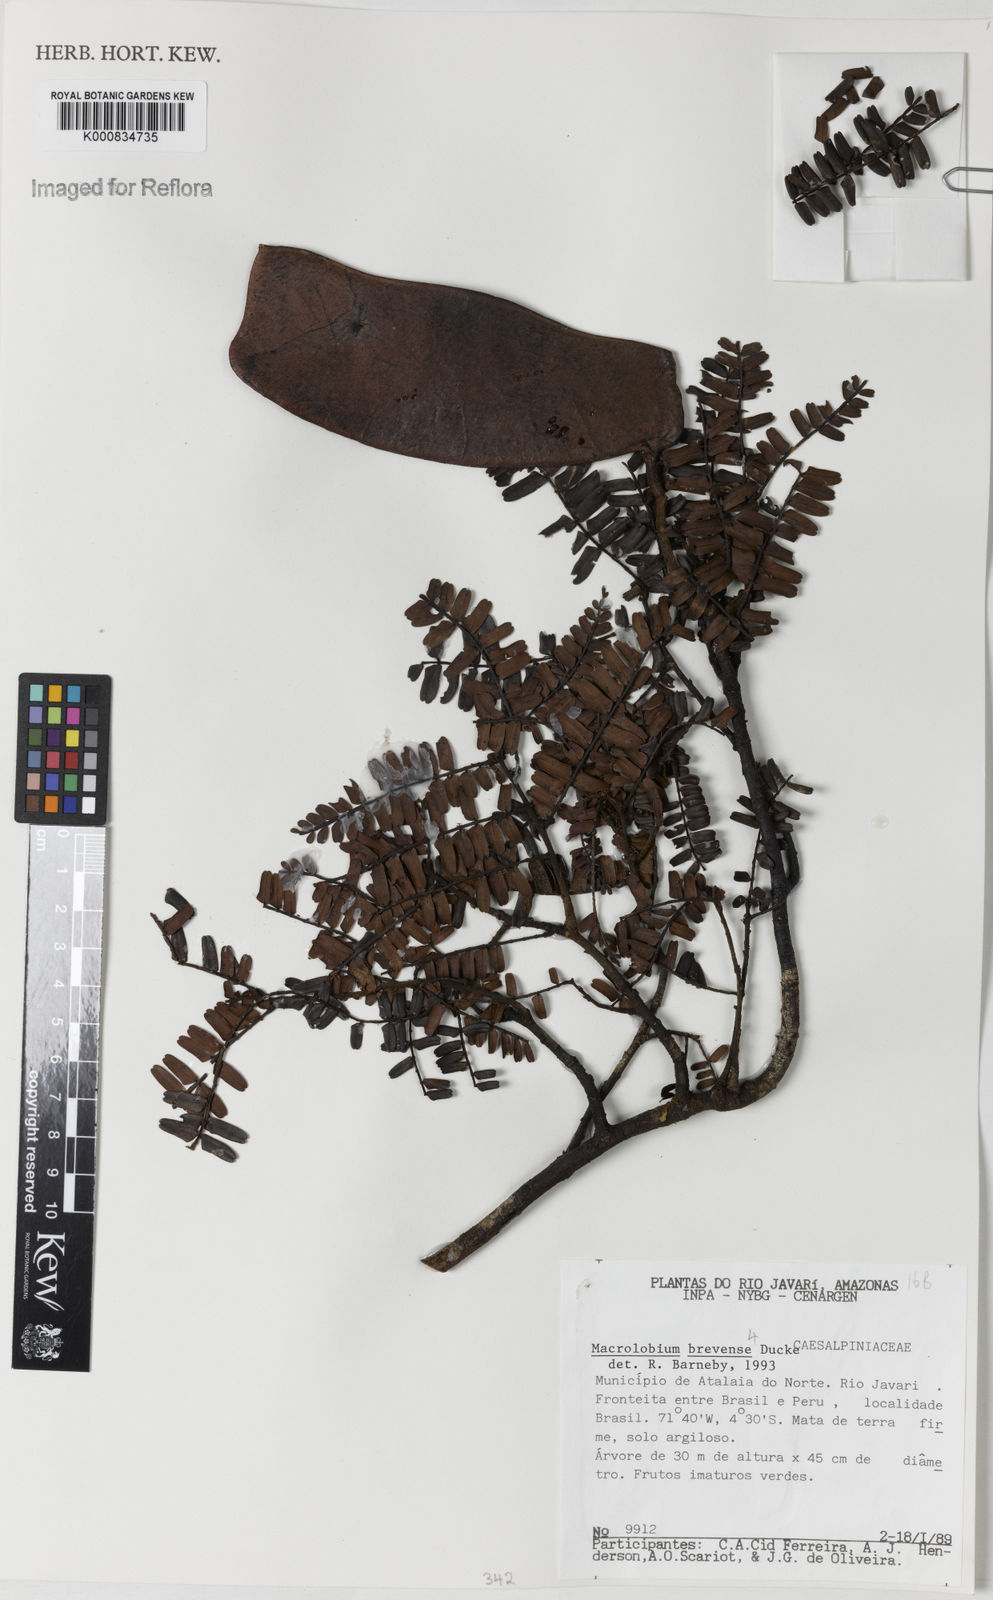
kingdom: Plantae
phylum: Tracheophyta
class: Magnoliopsida
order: Fabales
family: Fabaceae
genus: Macrolobium
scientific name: Macrolobium brevense
